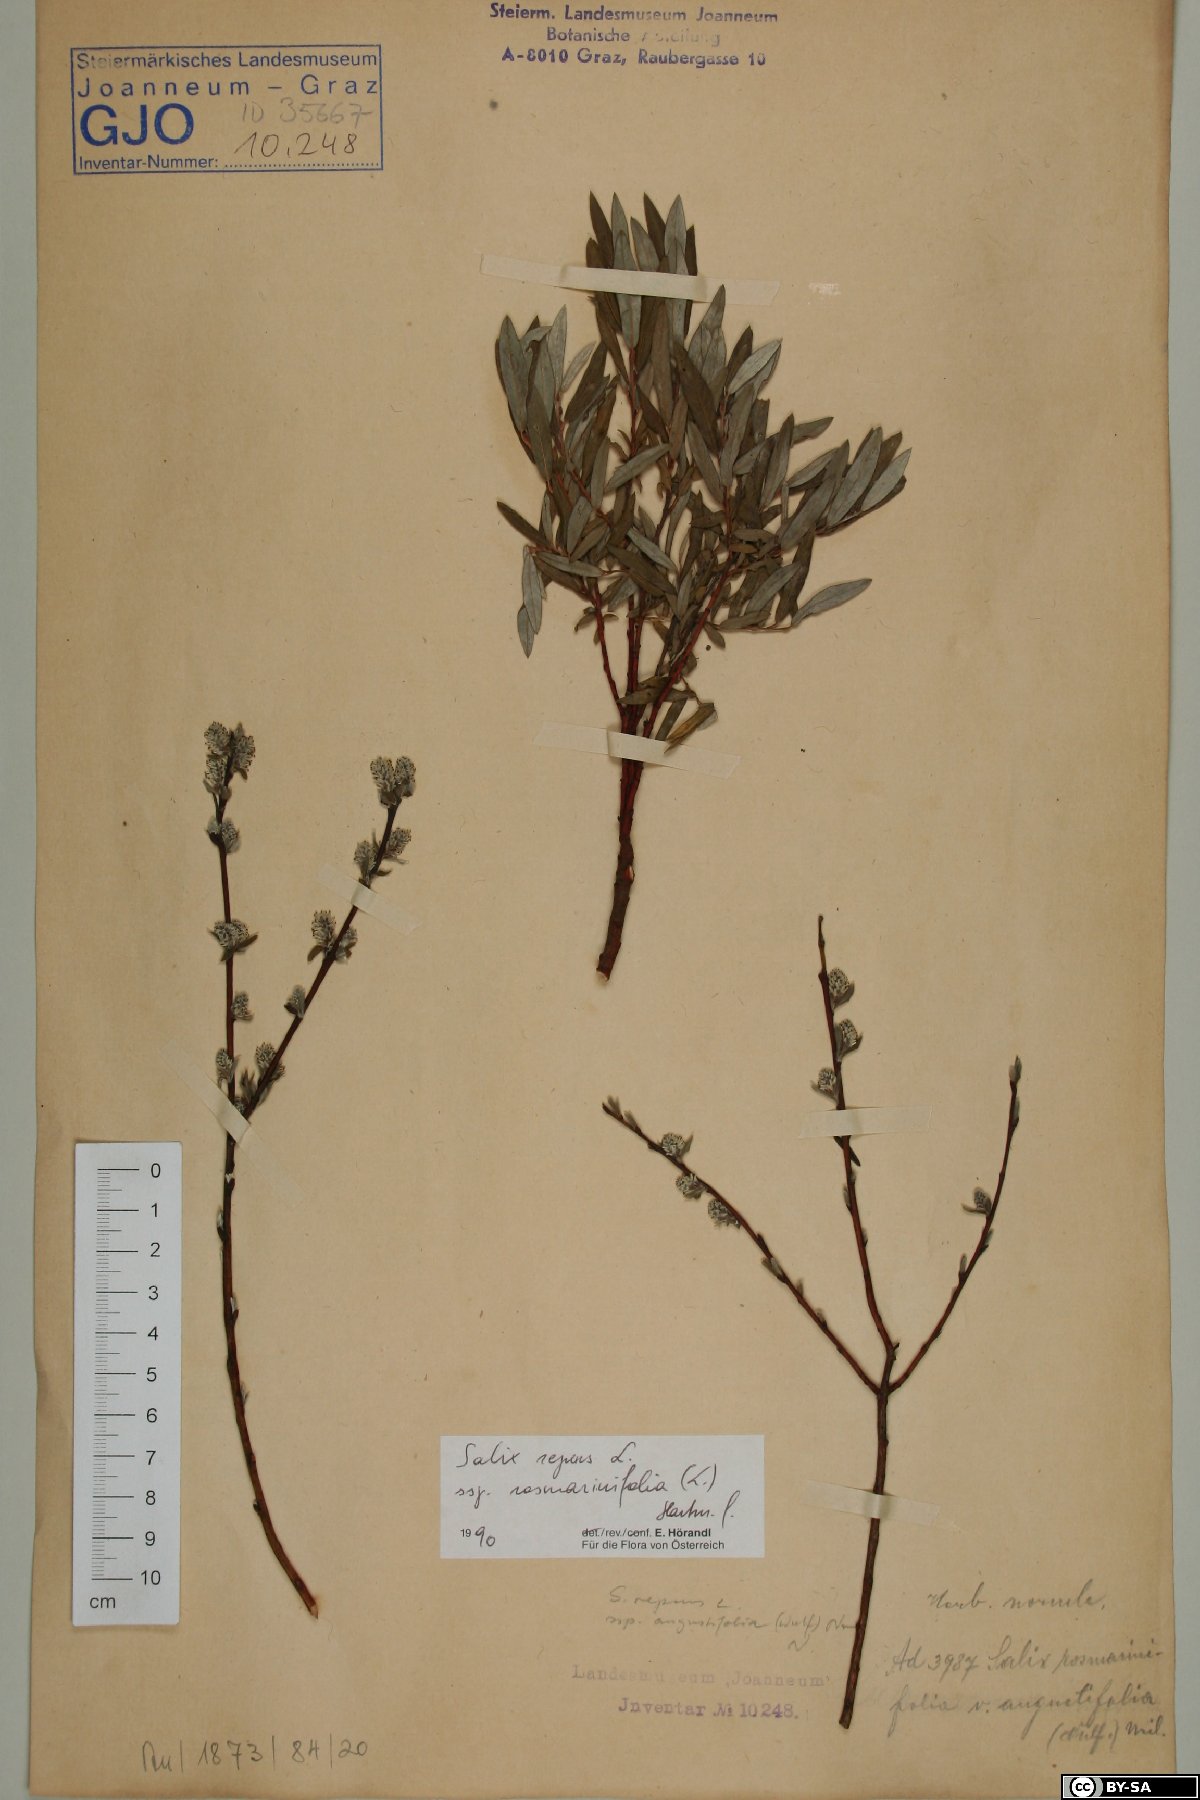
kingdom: Plantae
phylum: Tracheophyta
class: Magnoliopsida
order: Malpighiales
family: Salicaceae
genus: Salix
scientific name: Salix repens
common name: Creeping willow
